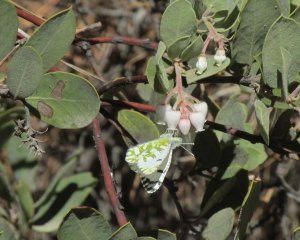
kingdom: Animalia
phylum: Arthropoda
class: Insecta
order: Lepidoptera
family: Pieridae
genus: Euchloe
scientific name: Euchloe ausonides
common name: Large Marble
